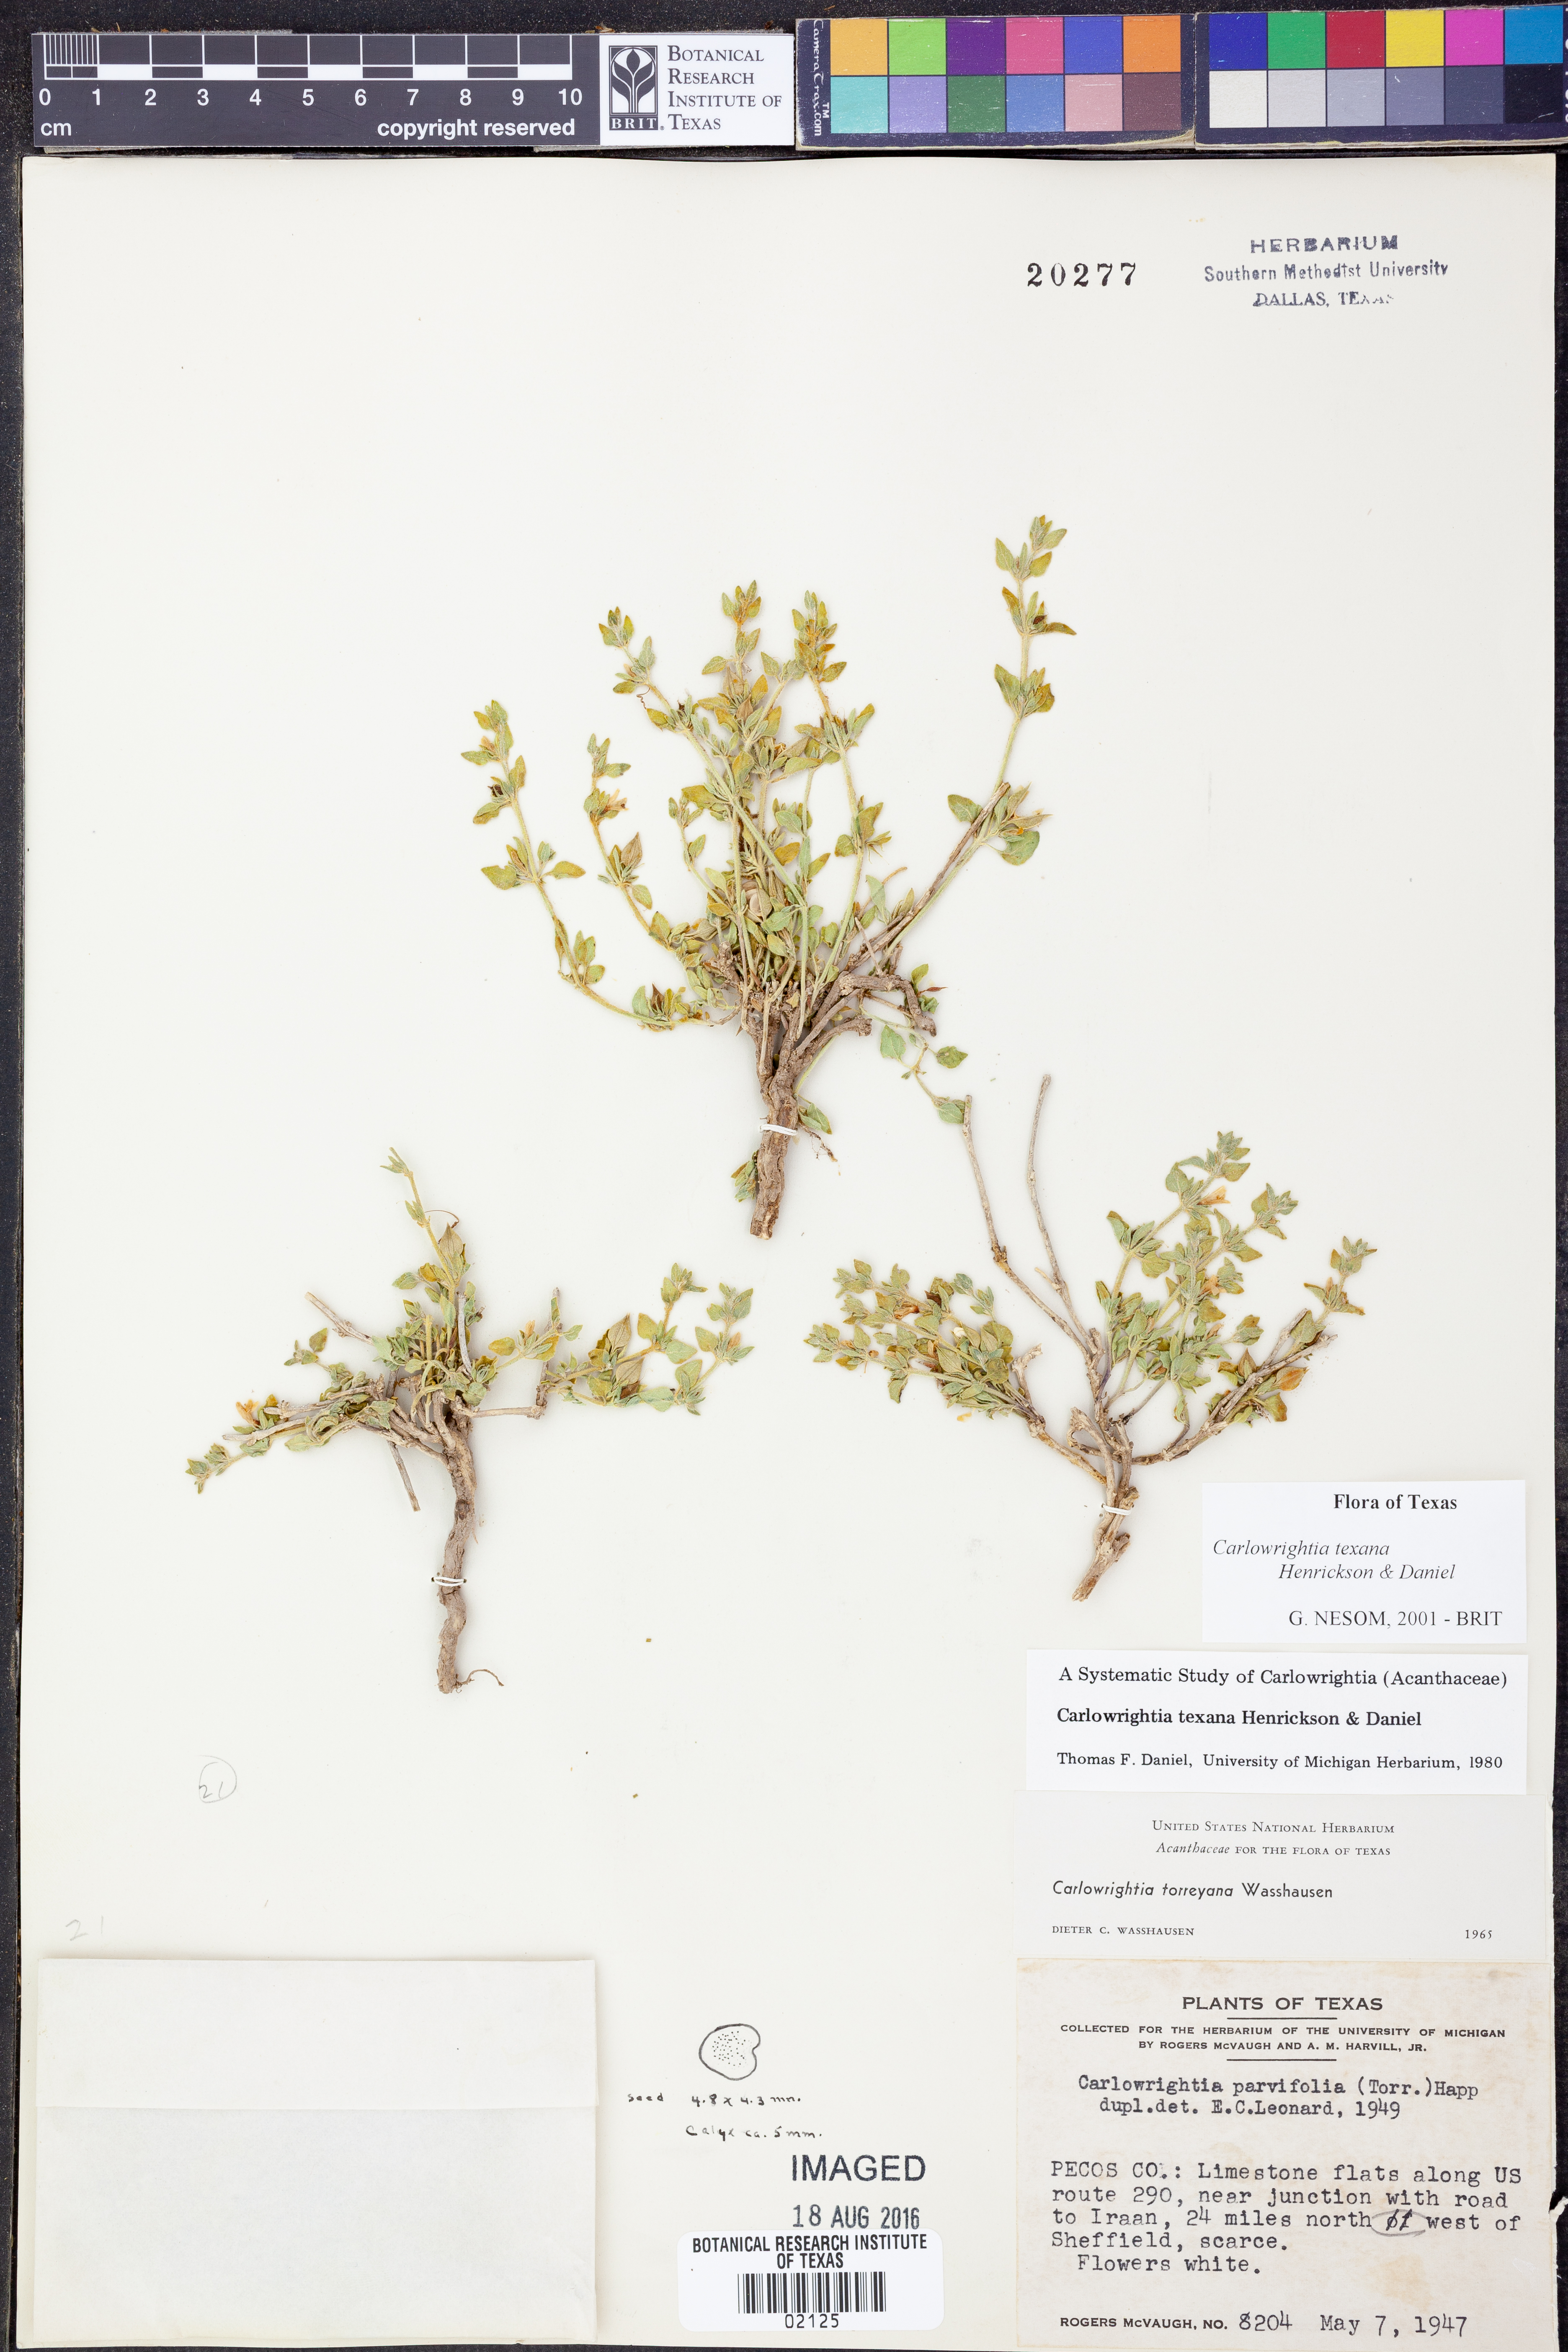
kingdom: Plantae
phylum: Tracheophyta
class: Magnoliopsida
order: Lamiales
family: Acanthaceae
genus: Carlowrightia
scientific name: Carlowrightia texana
